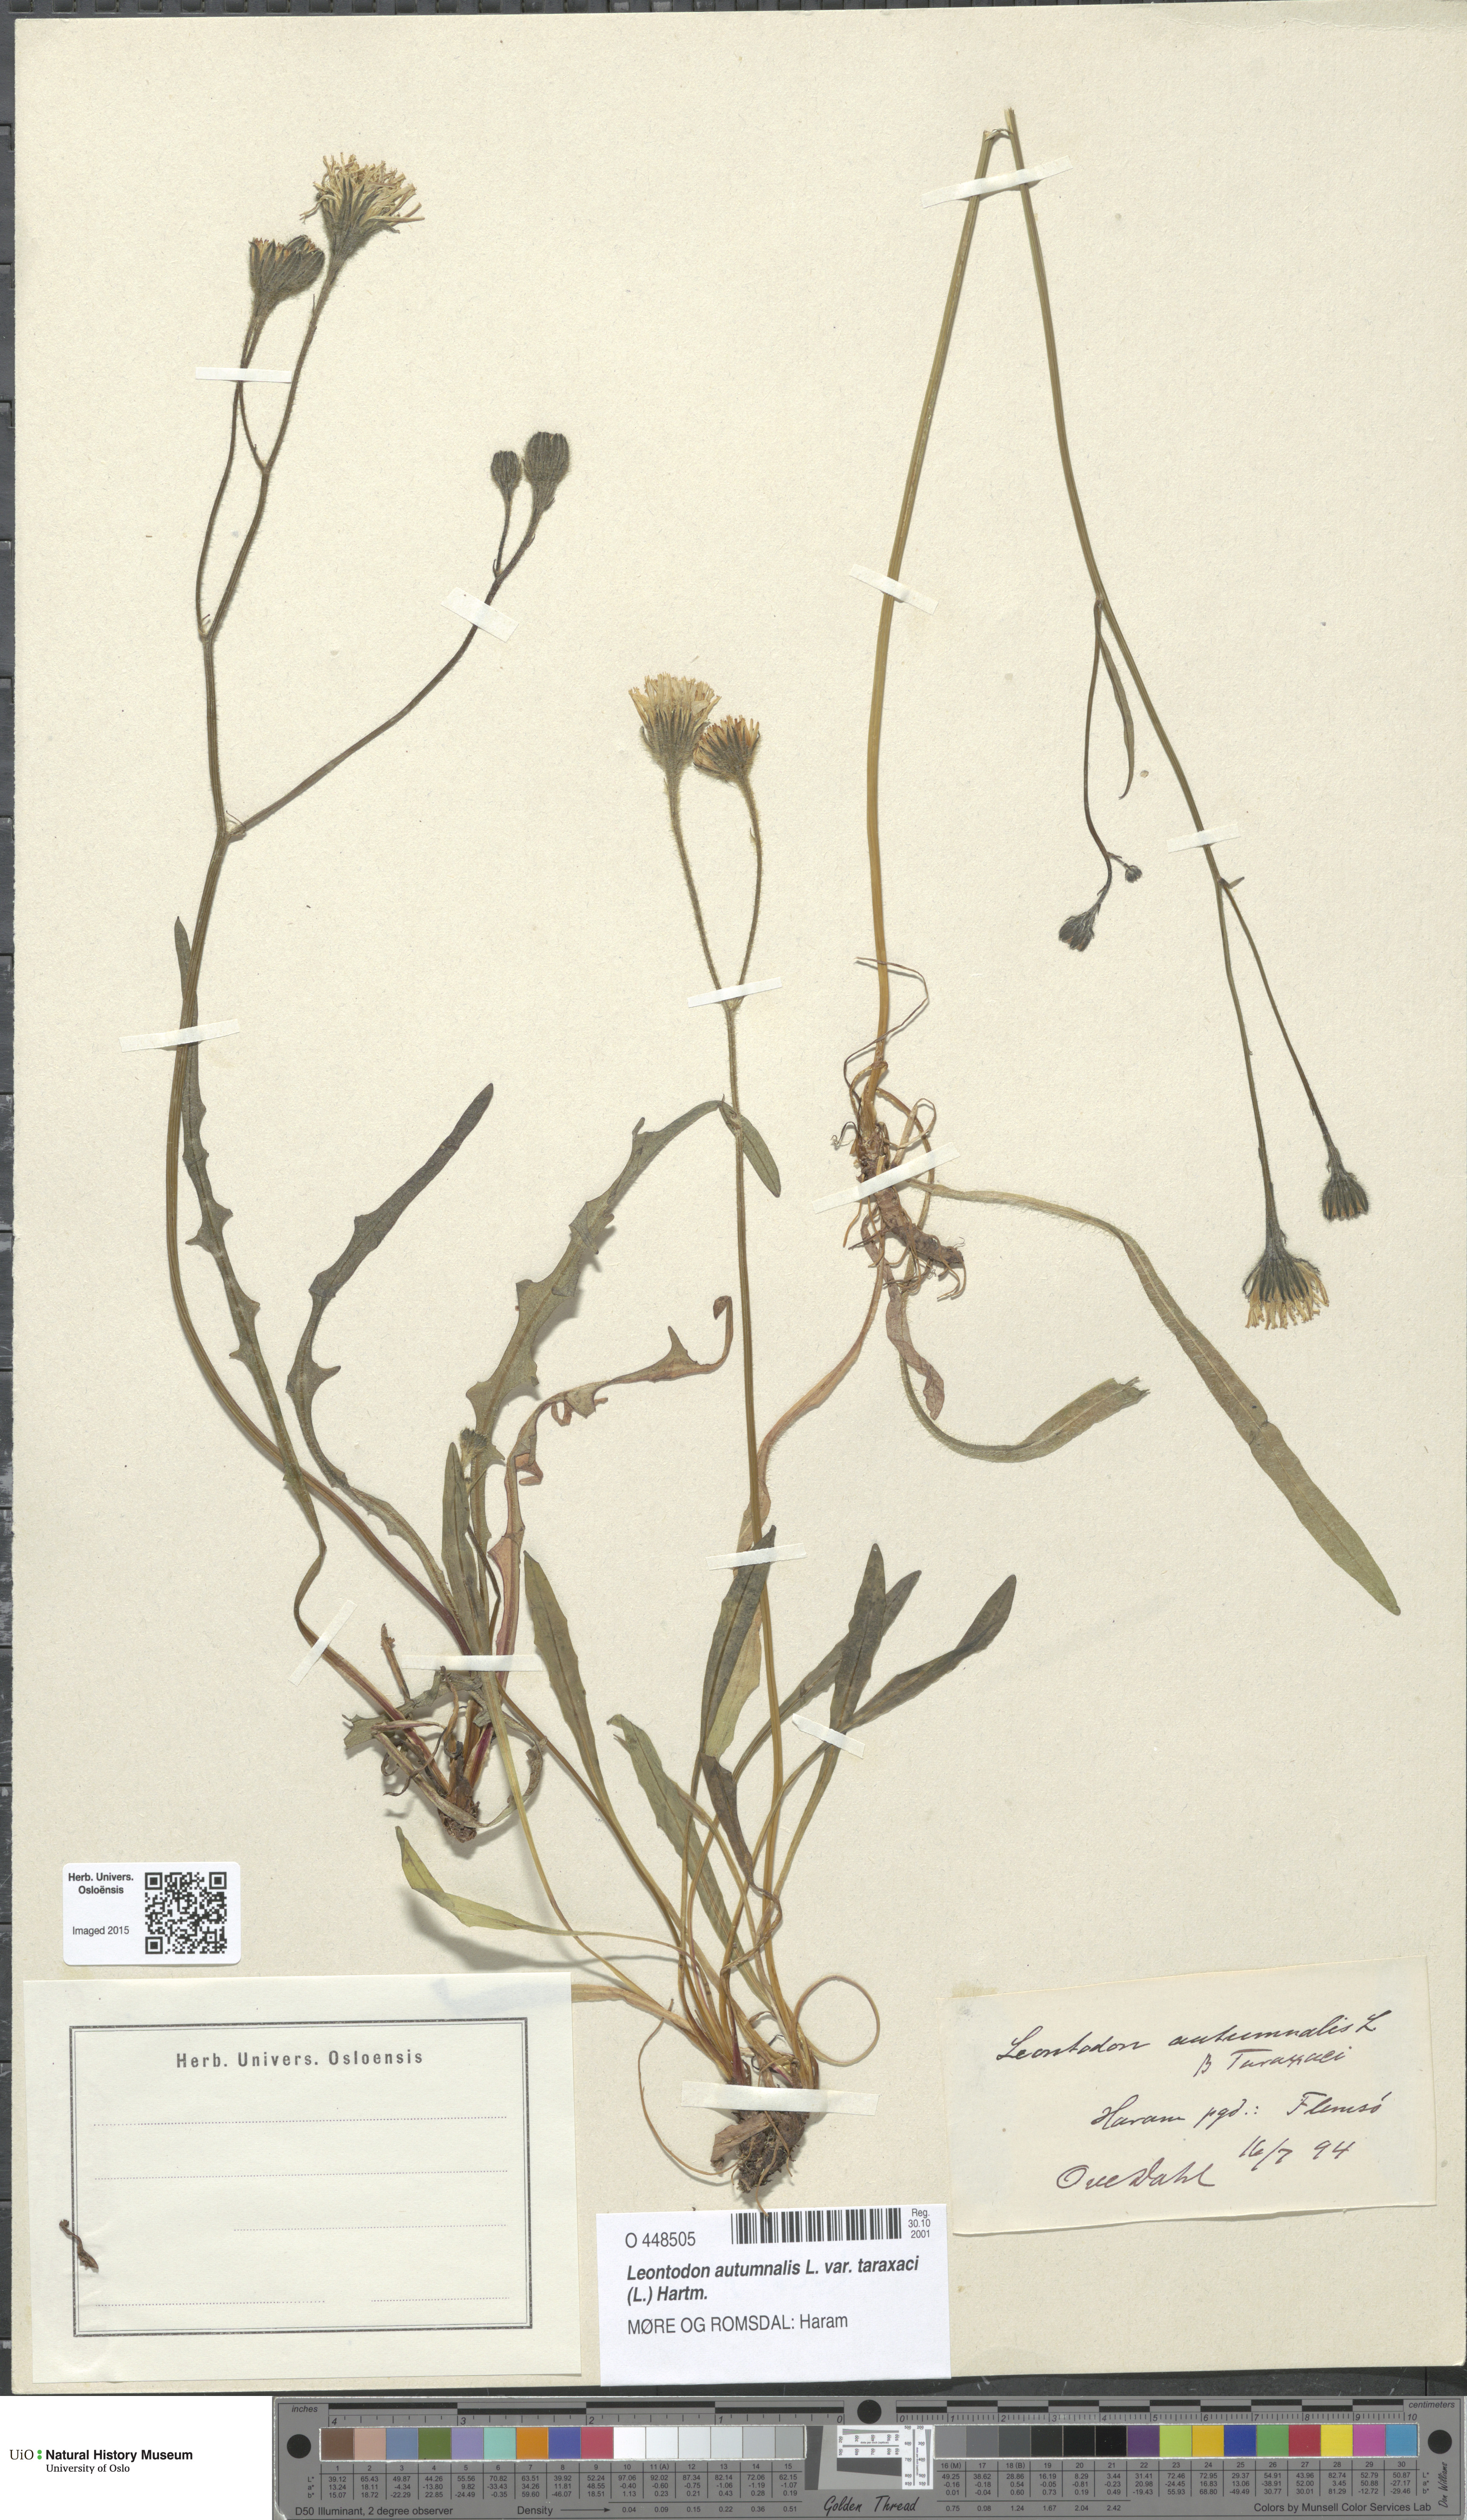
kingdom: Plantae
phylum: Tracheophyta
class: Magnoliopsida
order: Asterales
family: Asteraceae
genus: Scorzoneroides
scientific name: Scorzoneroides autumnalis
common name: Autumn hawkbit
